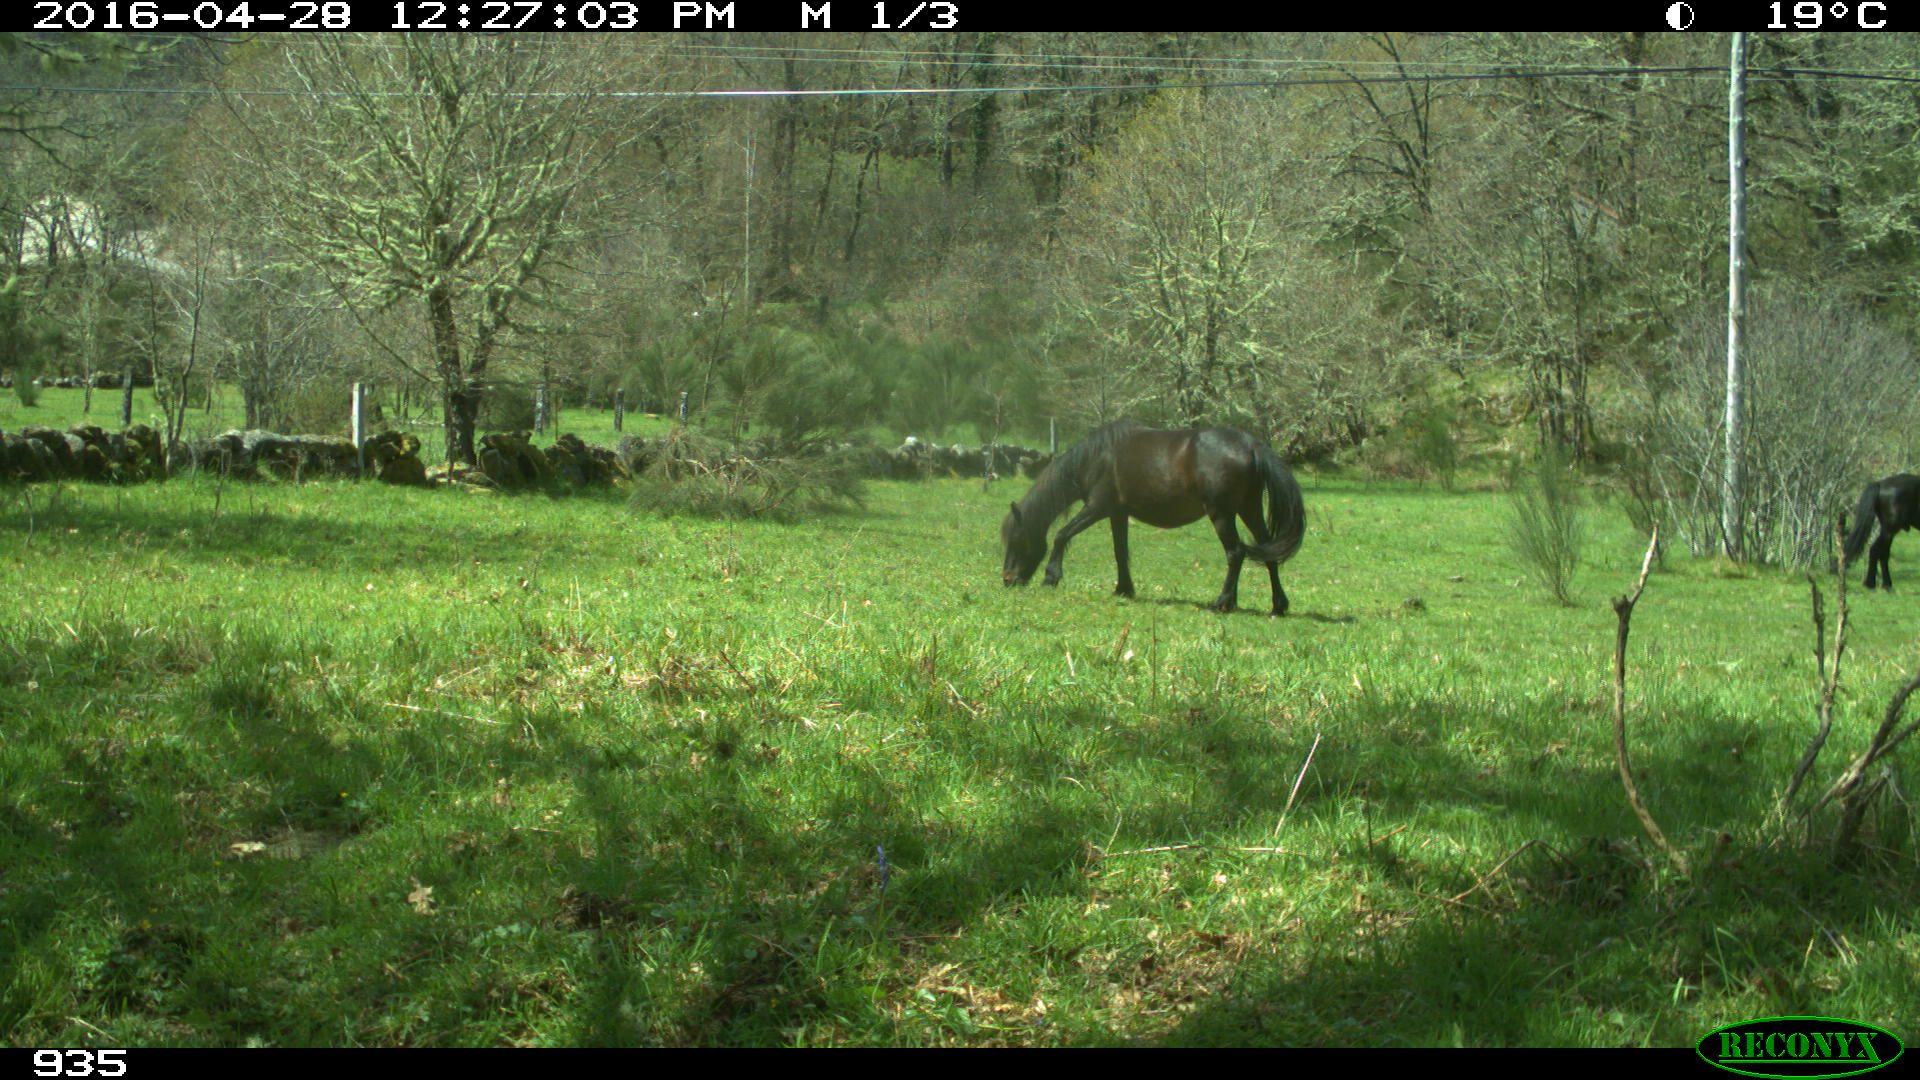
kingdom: Animalia
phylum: Chordata
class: Mammalia
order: Perissodactyla
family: Equidae
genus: Equus
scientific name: Equus caballus
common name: Horse
